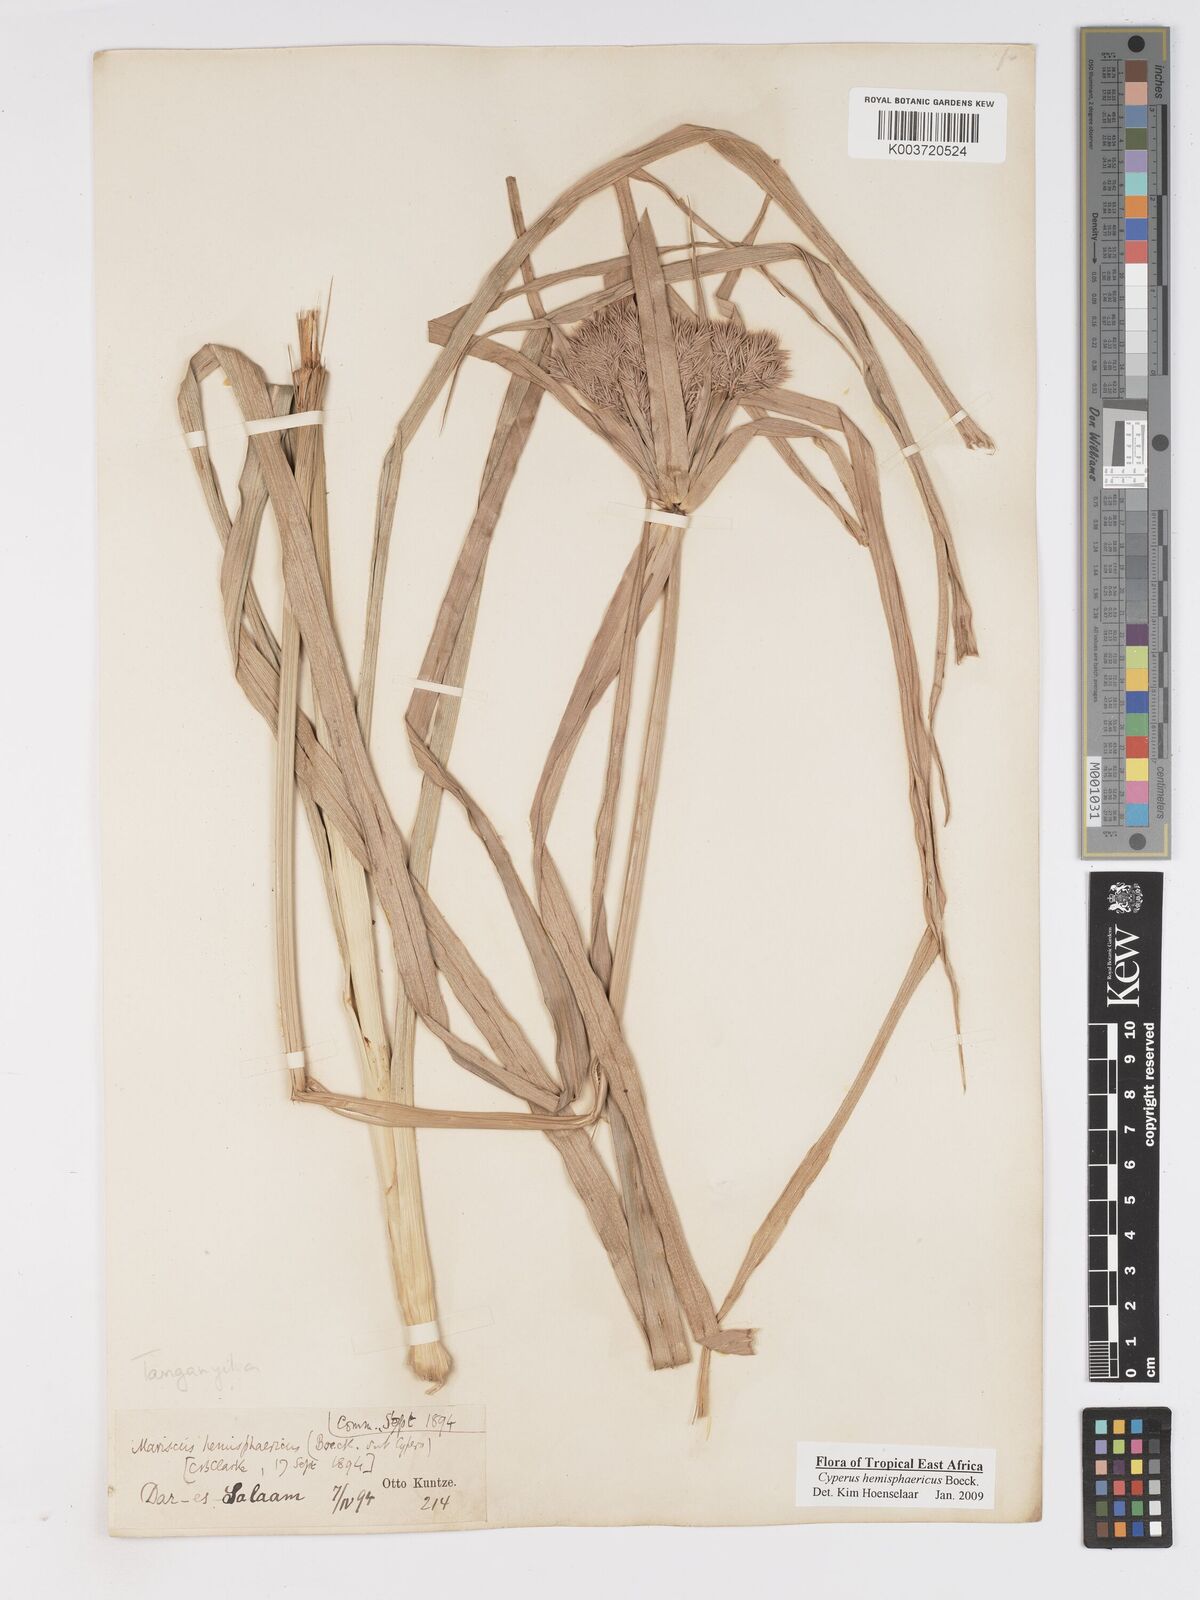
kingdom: Plantae
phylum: Tracheophyta
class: Liliopsida
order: Poales
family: Cyperaceae
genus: Cyperus
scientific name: Cyperus hemisphaericus
